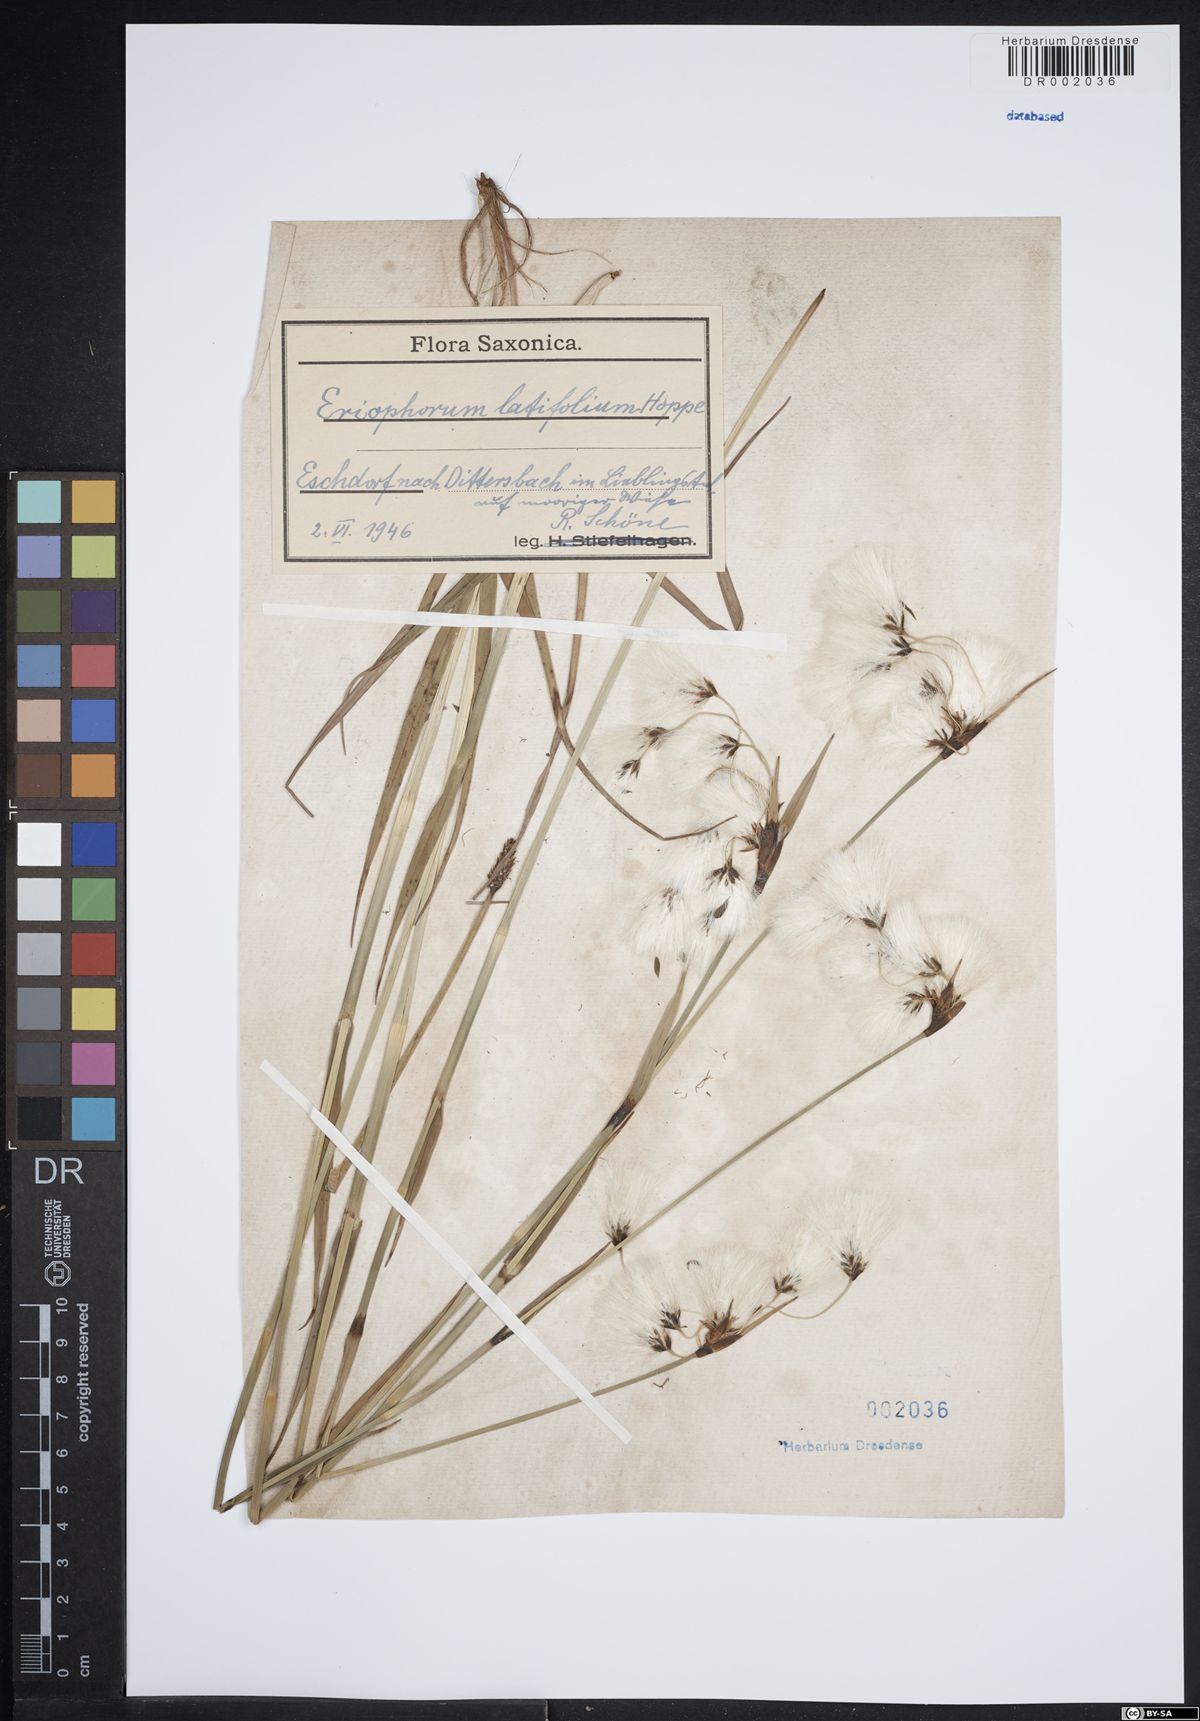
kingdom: Plantae
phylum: Tracheophyta
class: Liliopsida
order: Poales
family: Cyperaceae
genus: Eriophorum
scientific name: Eriophorum latifolium
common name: Broad-leaved cottongrass
